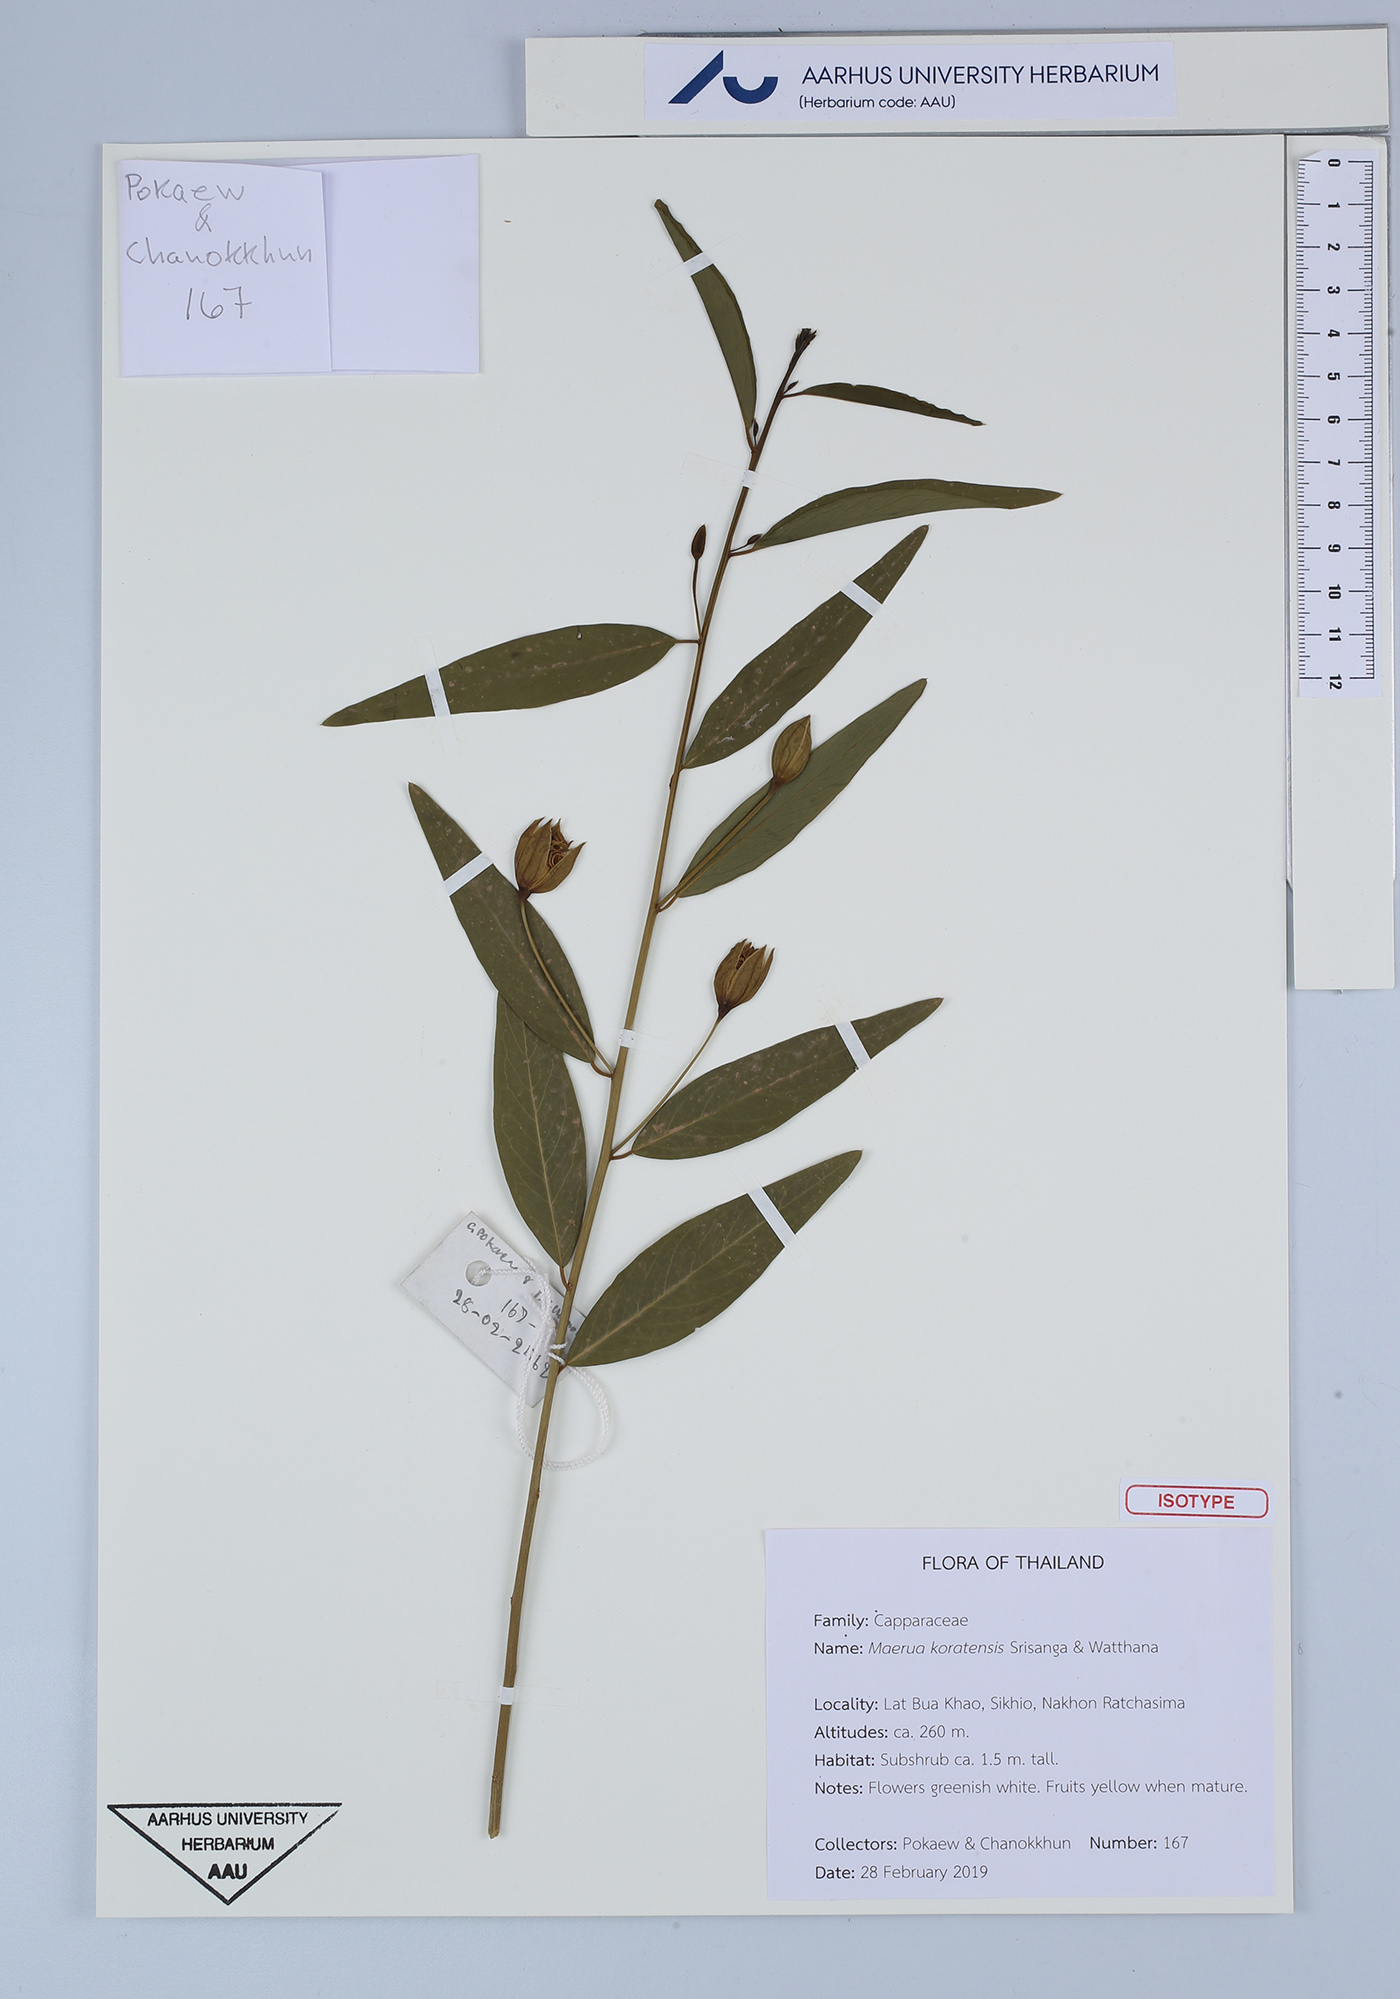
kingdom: Plantae
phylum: Tracheophyta
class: Magnoliopsida
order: Brassicales
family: Capparaceae
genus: Maerua
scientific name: Maerua koratensis
